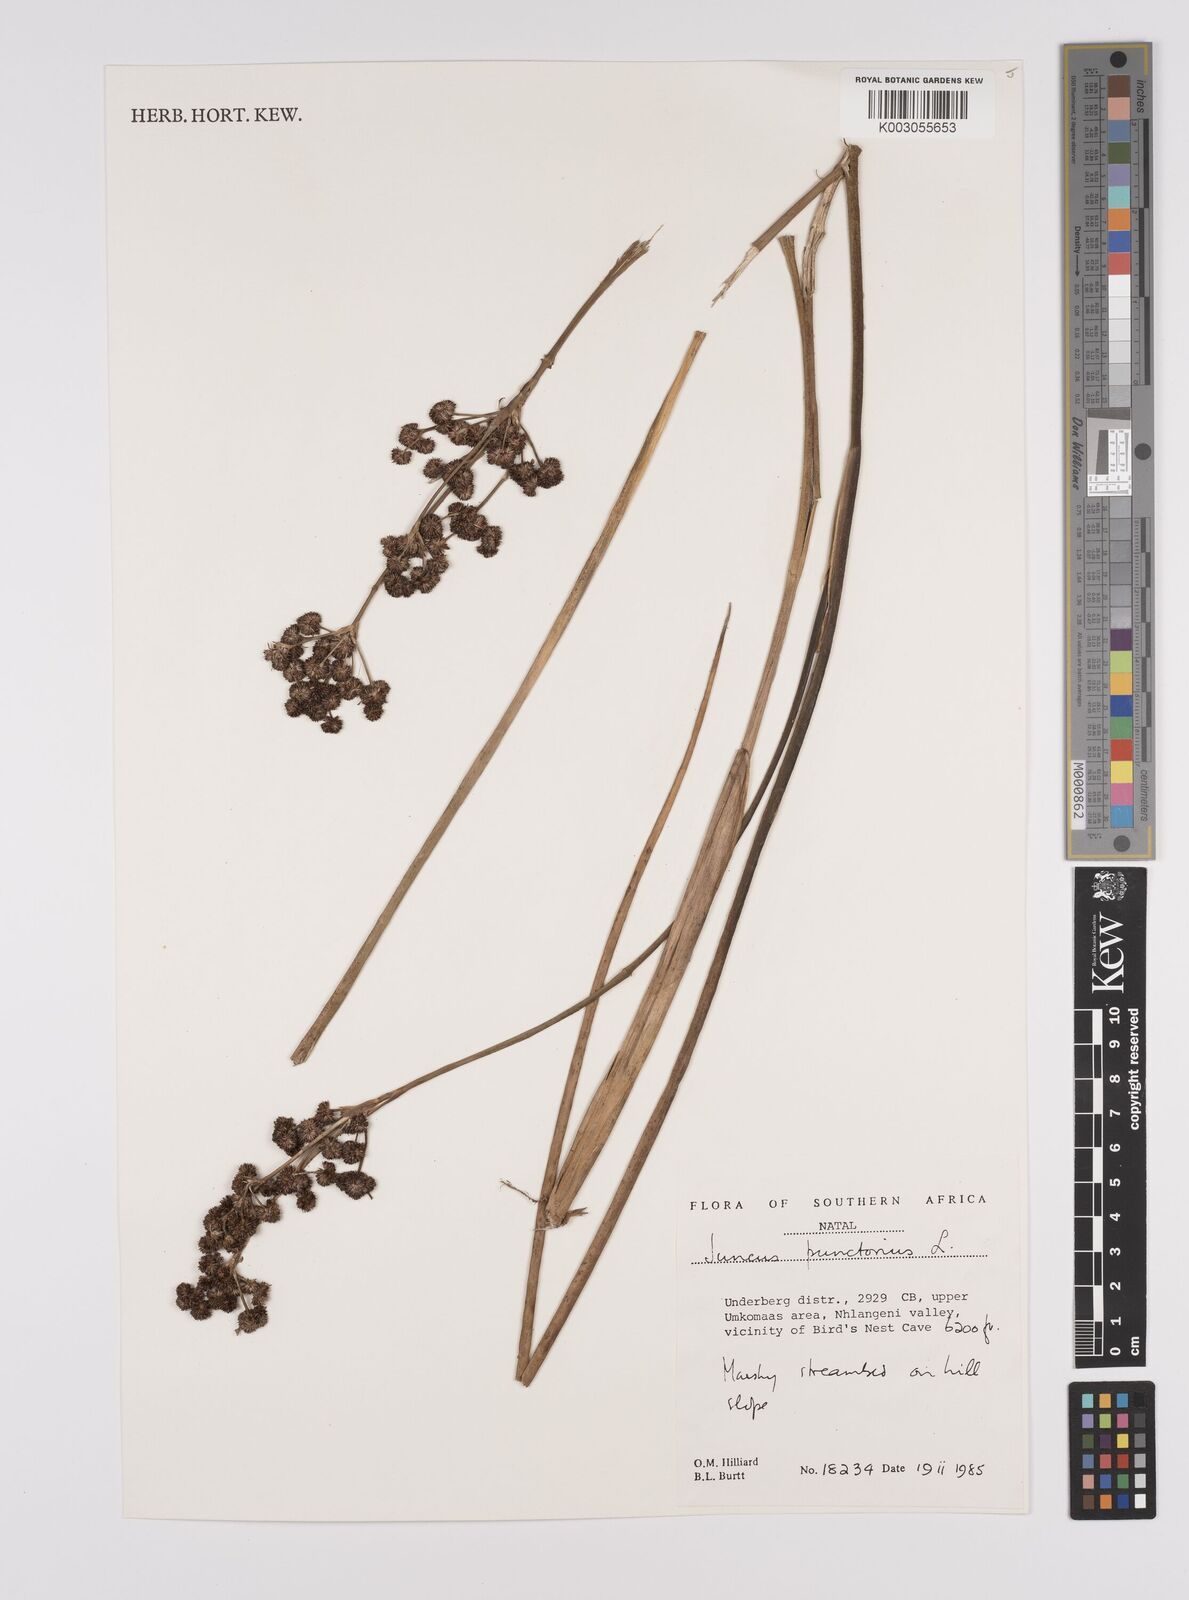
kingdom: Plantae
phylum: Tracheophyta
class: Liliopsida
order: Poales
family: Juncaceae
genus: Juncus
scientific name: Juncus punctorius
